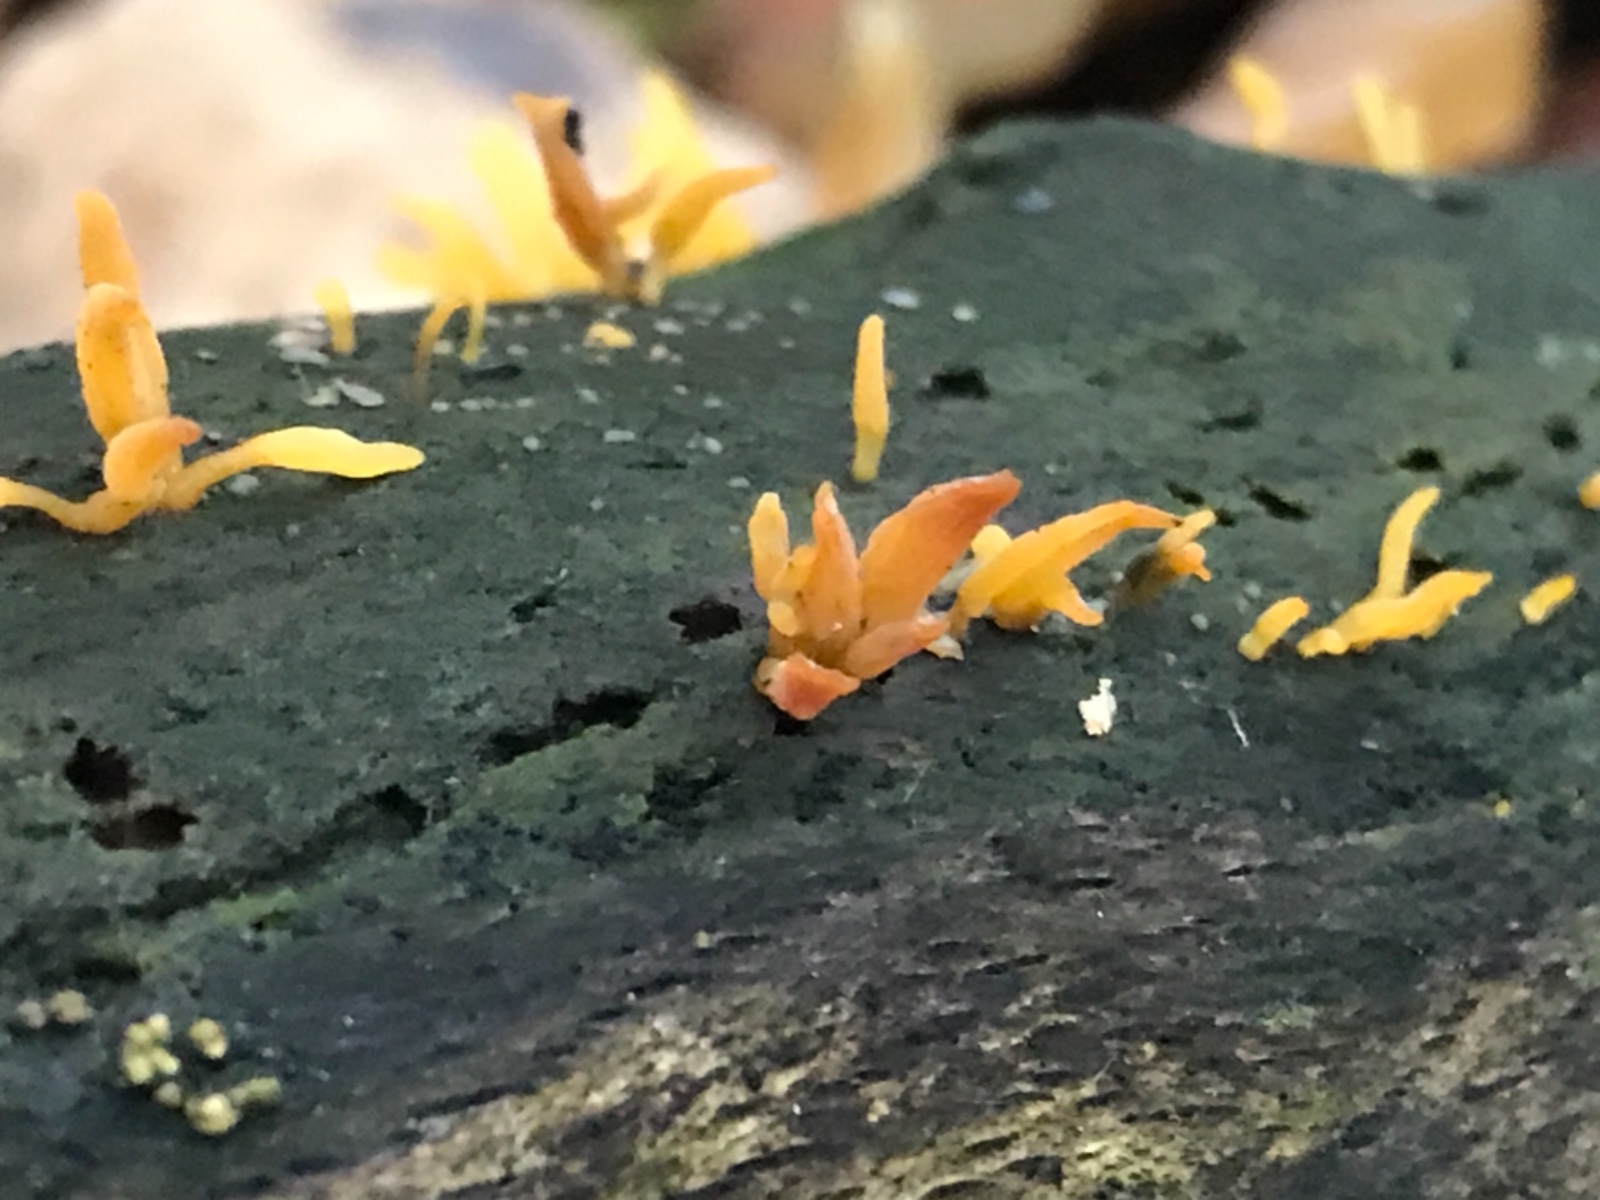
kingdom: Fungi
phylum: Basidiomycota
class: Dacrymycetes
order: Dacrymycetales
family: Dacrymycetaceae
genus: Calocera
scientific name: Calocera cornea
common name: liden guldgaffel
